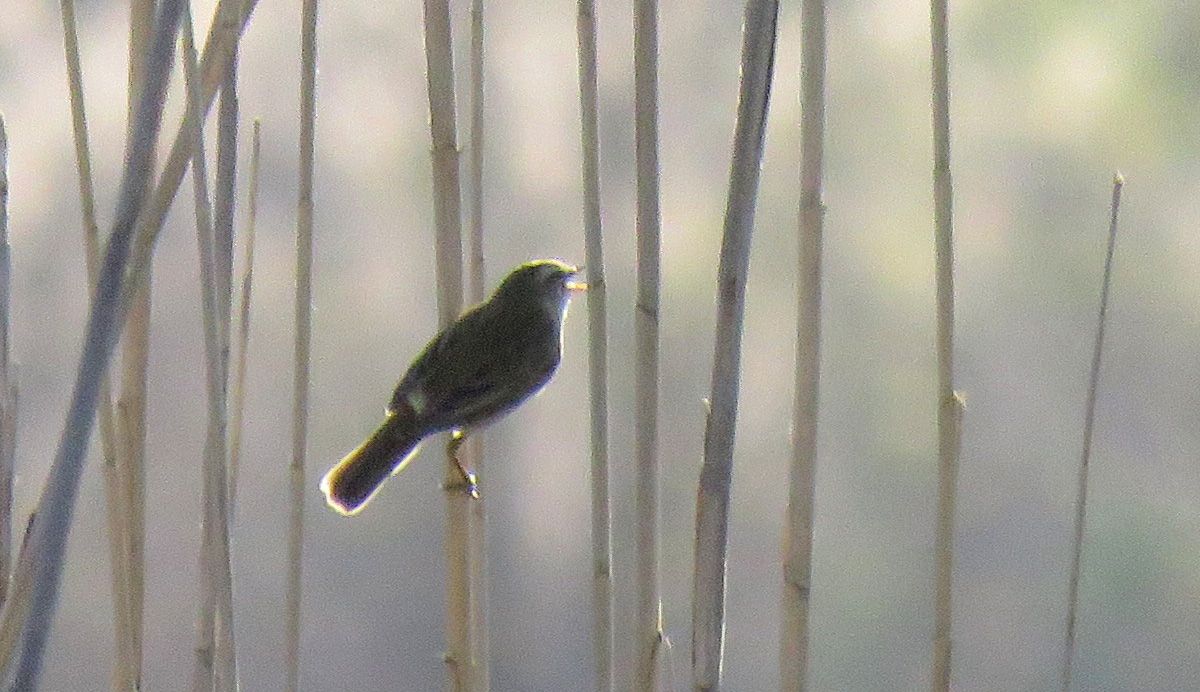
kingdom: Animalia
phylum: Chordata
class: Aves
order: Passeriformes
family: Acrocephalidae
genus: Acrocephalus
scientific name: Acrocephalus schoenobaenus
